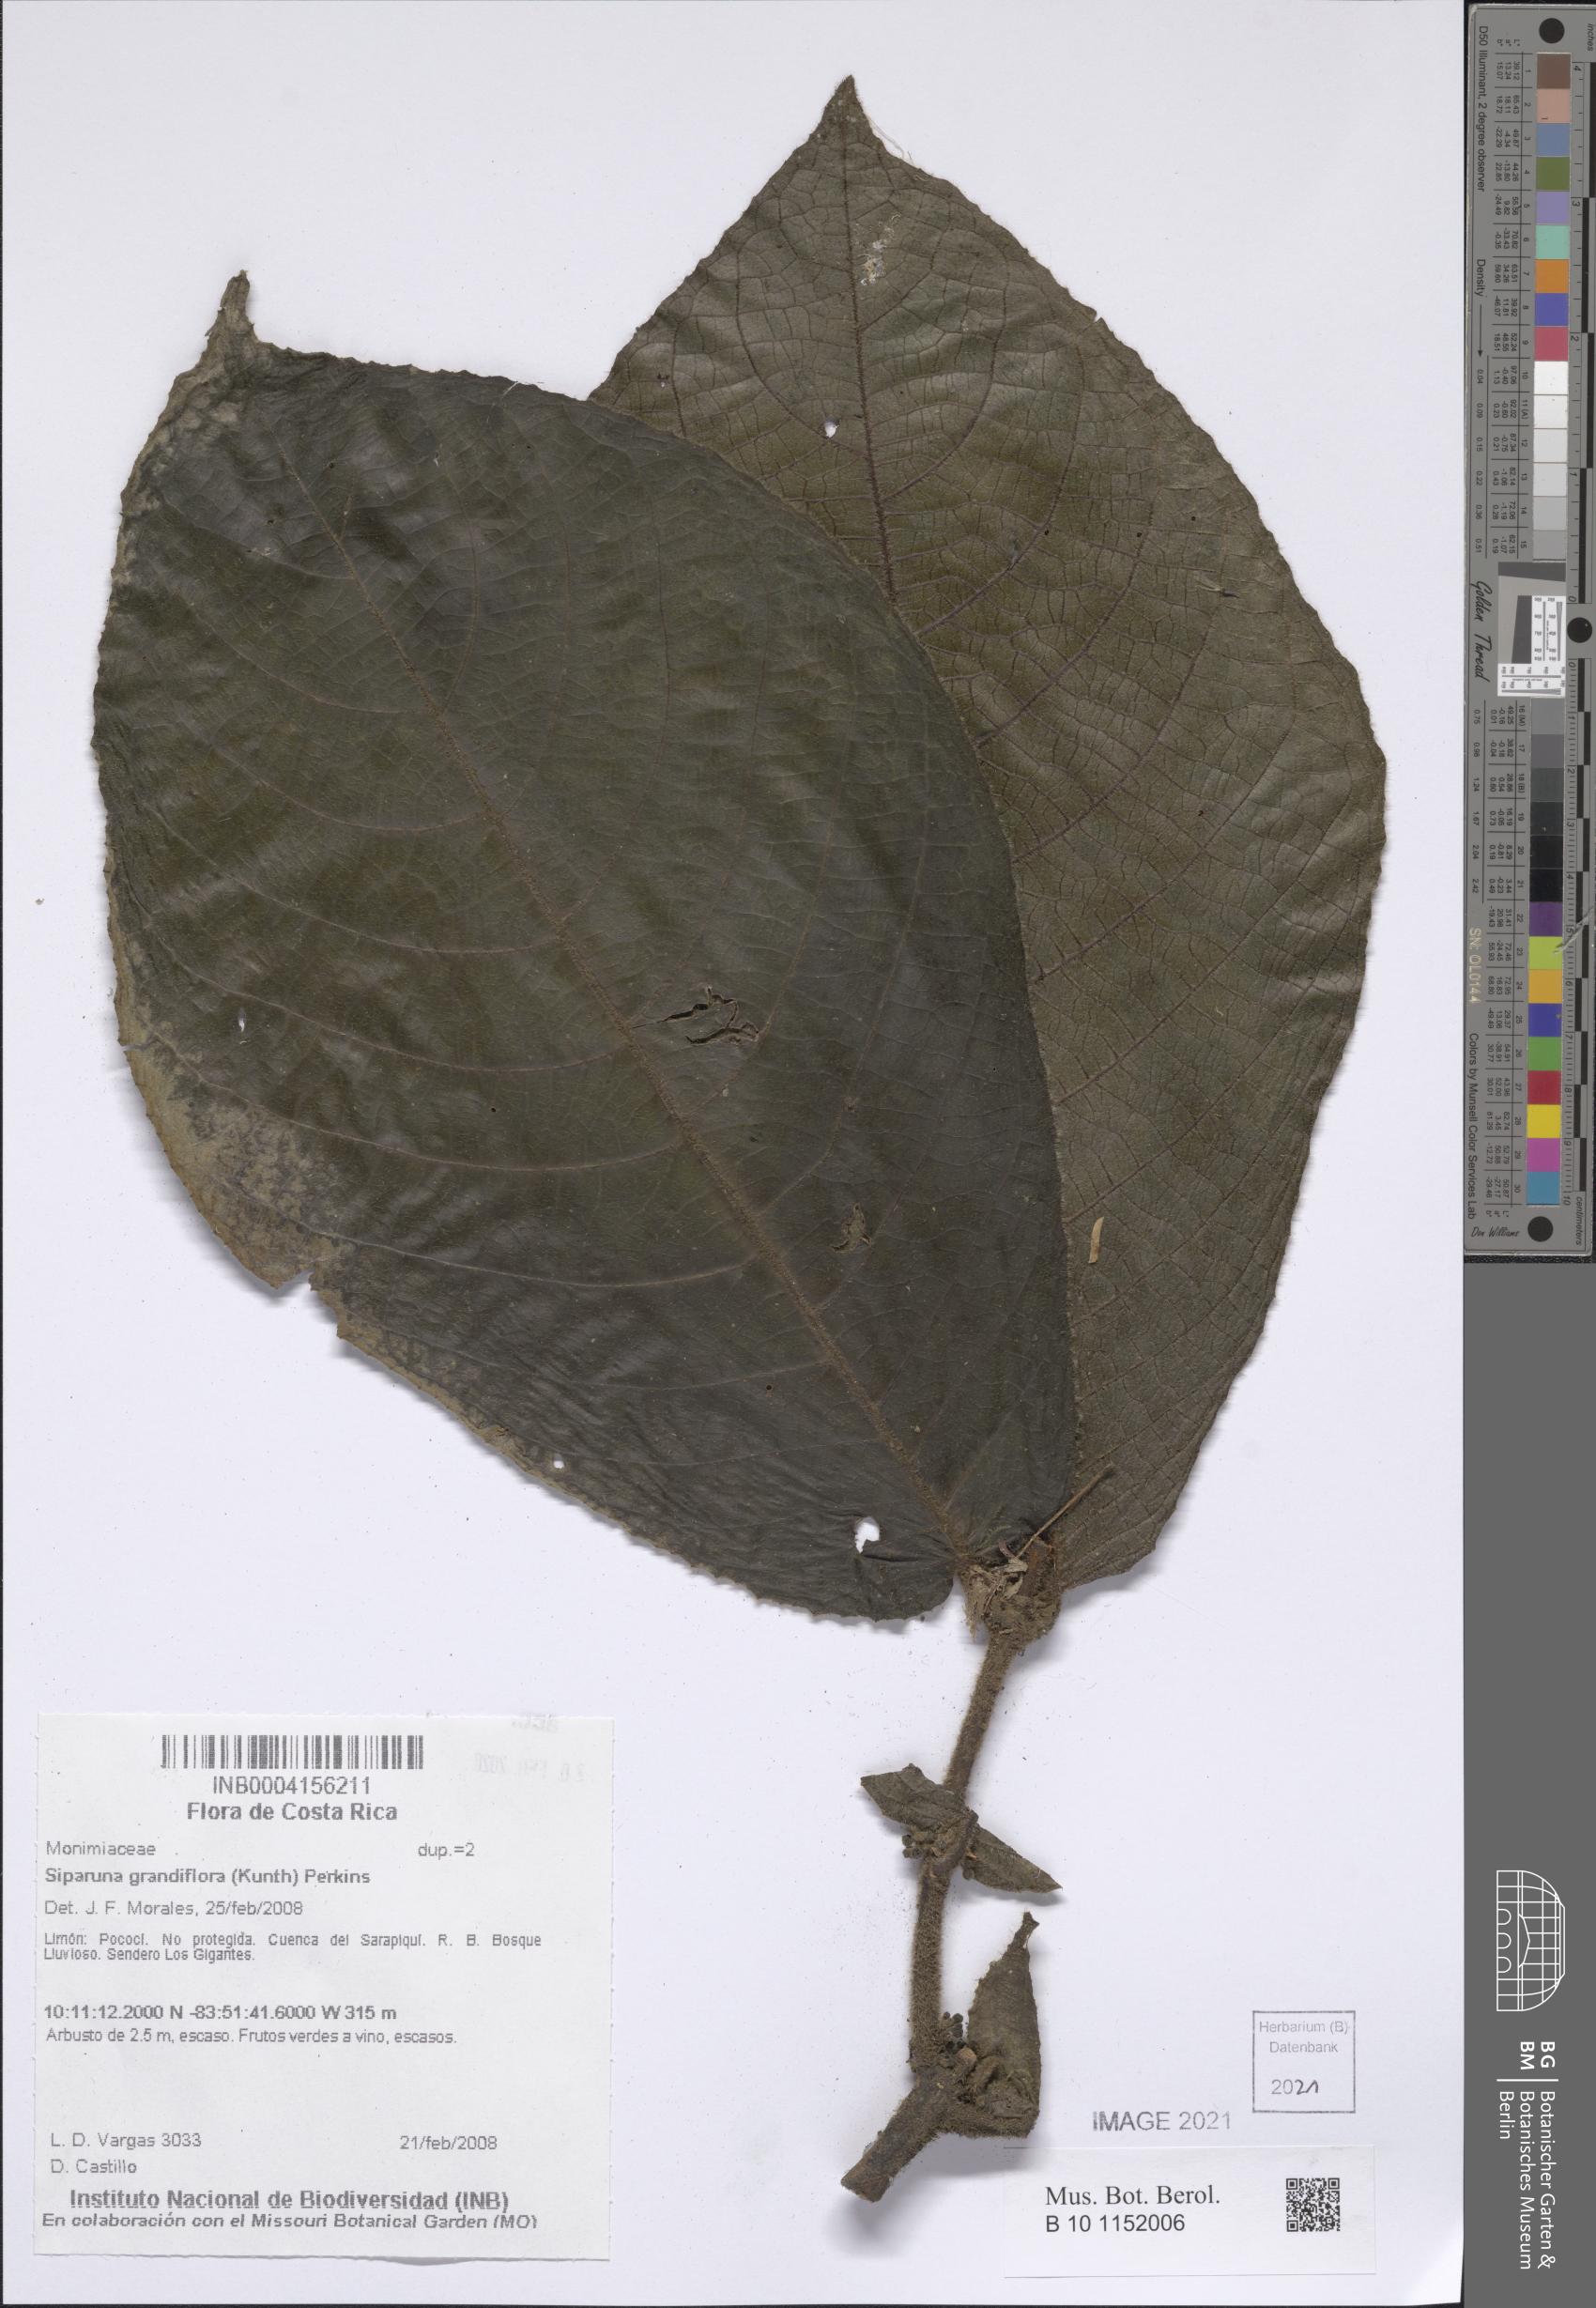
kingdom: Plantae
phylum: Tracheophyta
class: Magnoliopsida
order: Laurales
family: Siparunaceae
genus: Siparuna
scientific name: Siparuna grandiflora
